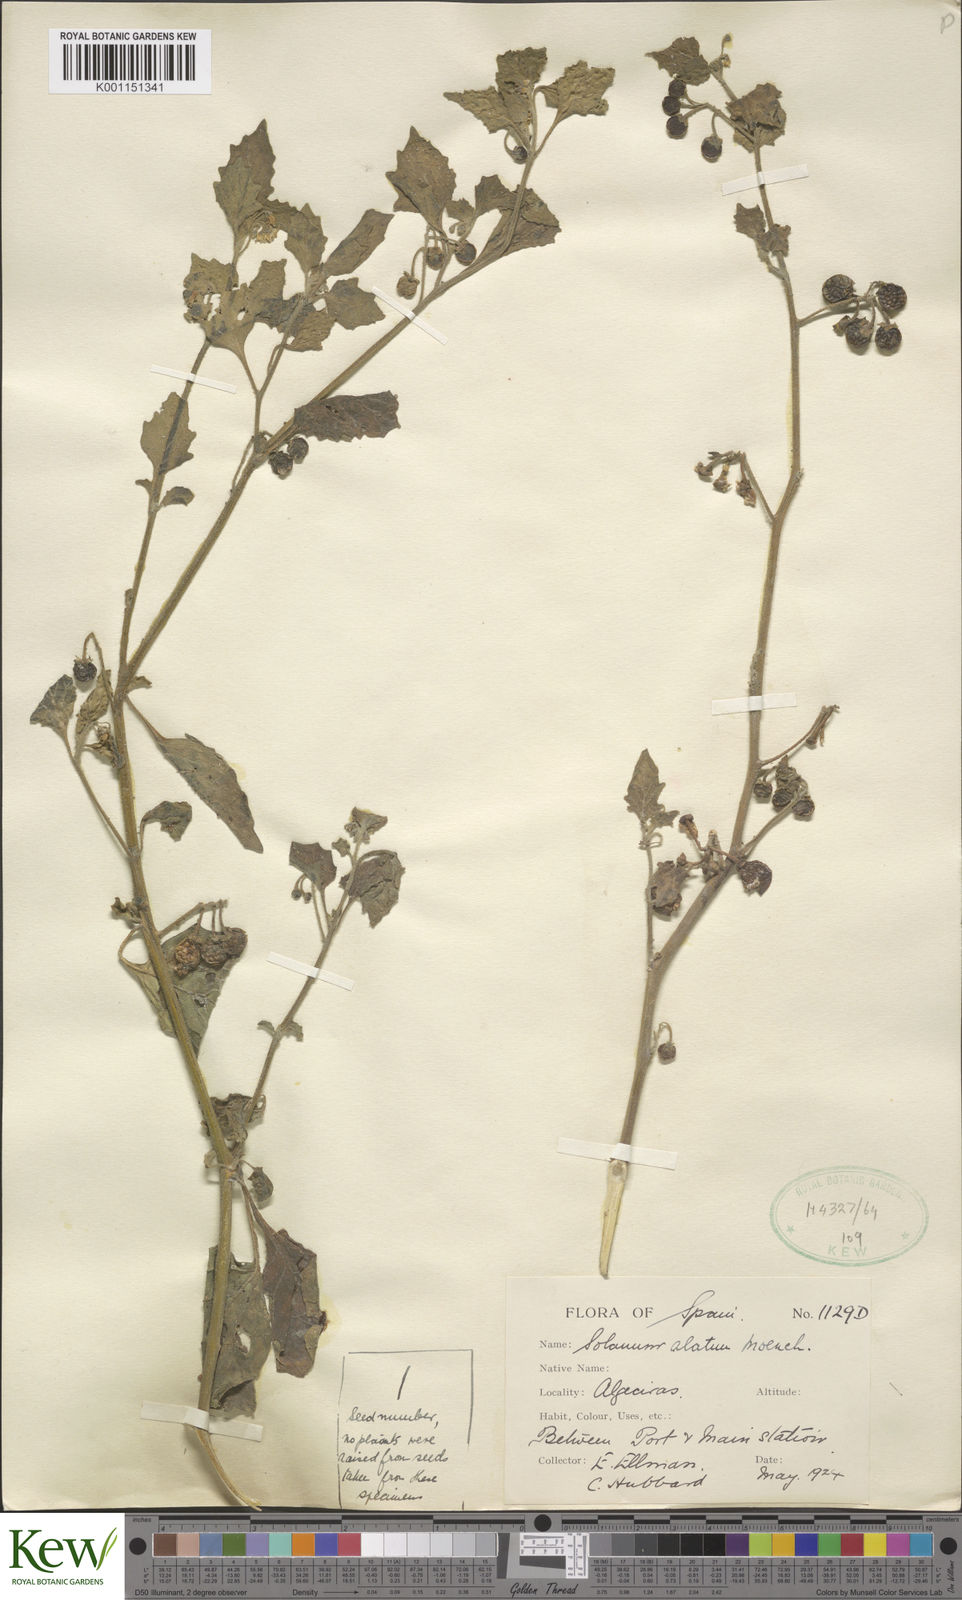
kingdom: Plantae
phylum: Tracheophyta
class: Magnoliopsida
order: Solanales
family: Solanaceae
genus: Solanum
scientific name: Solanum alatum
